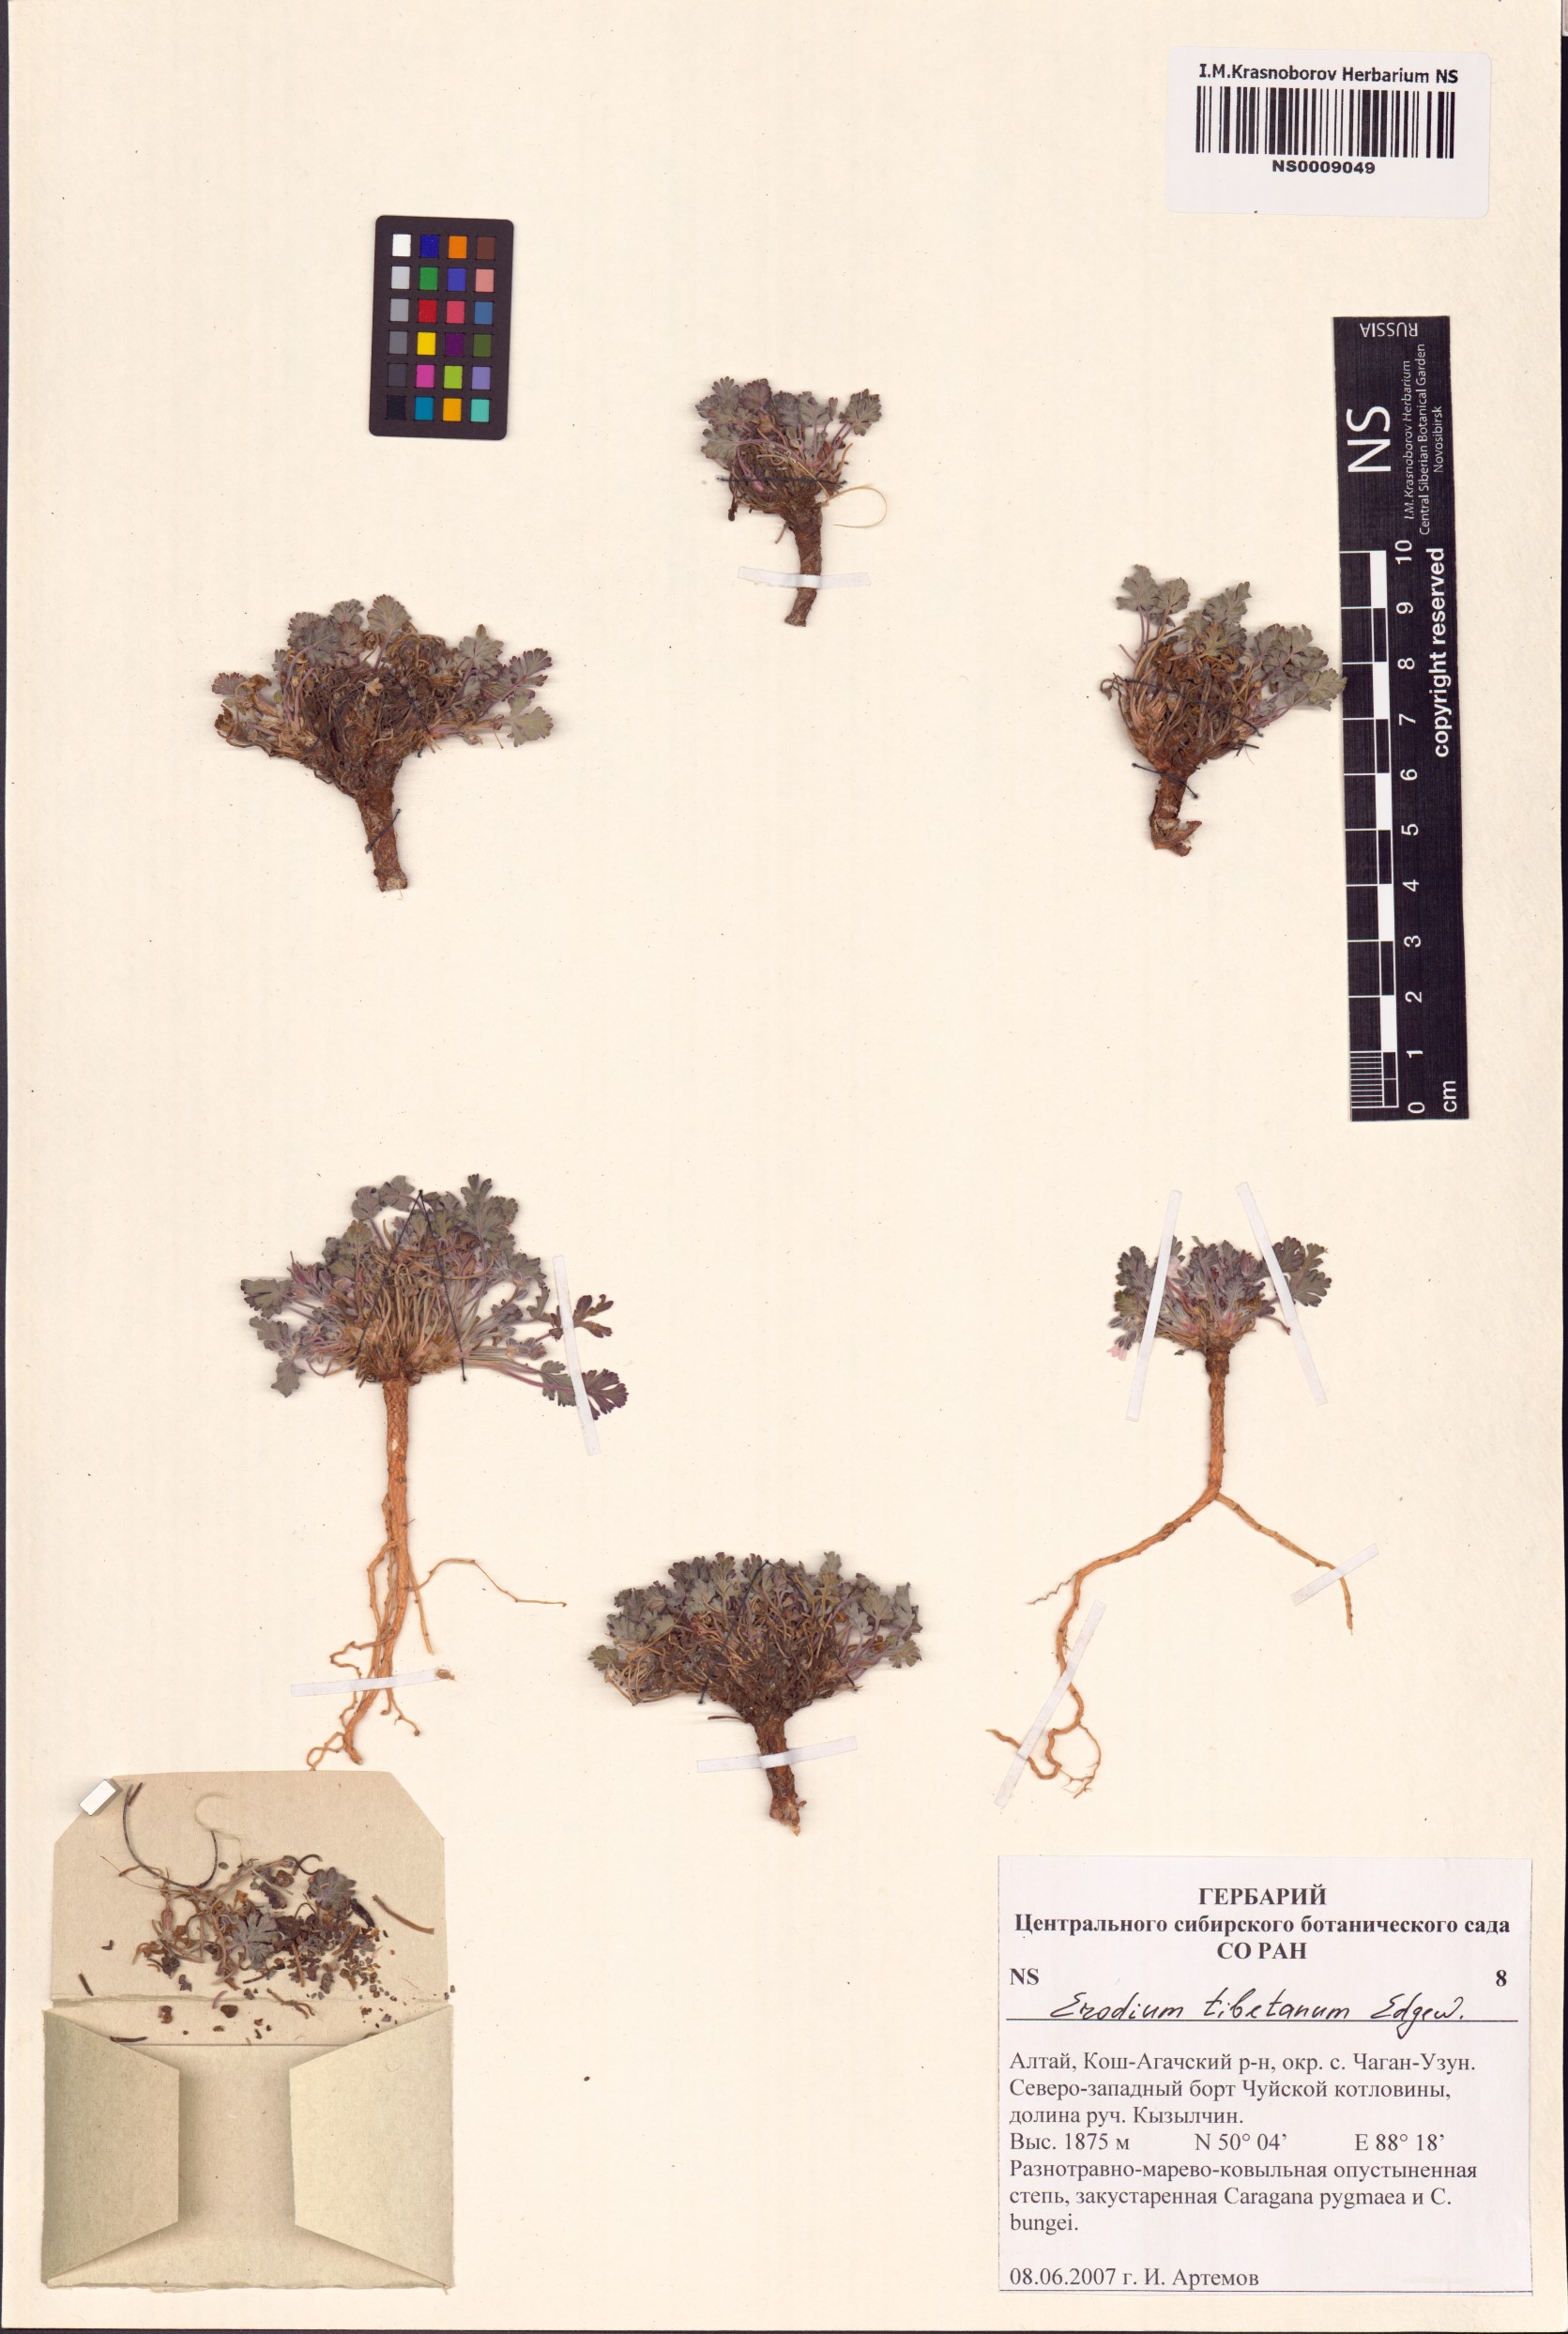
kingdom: Plantae
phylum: Tracheophyta
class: Magnoliopsida
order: Geraniales
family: Geraniaceae
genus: Erodium
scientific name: Erodium tibetanum
